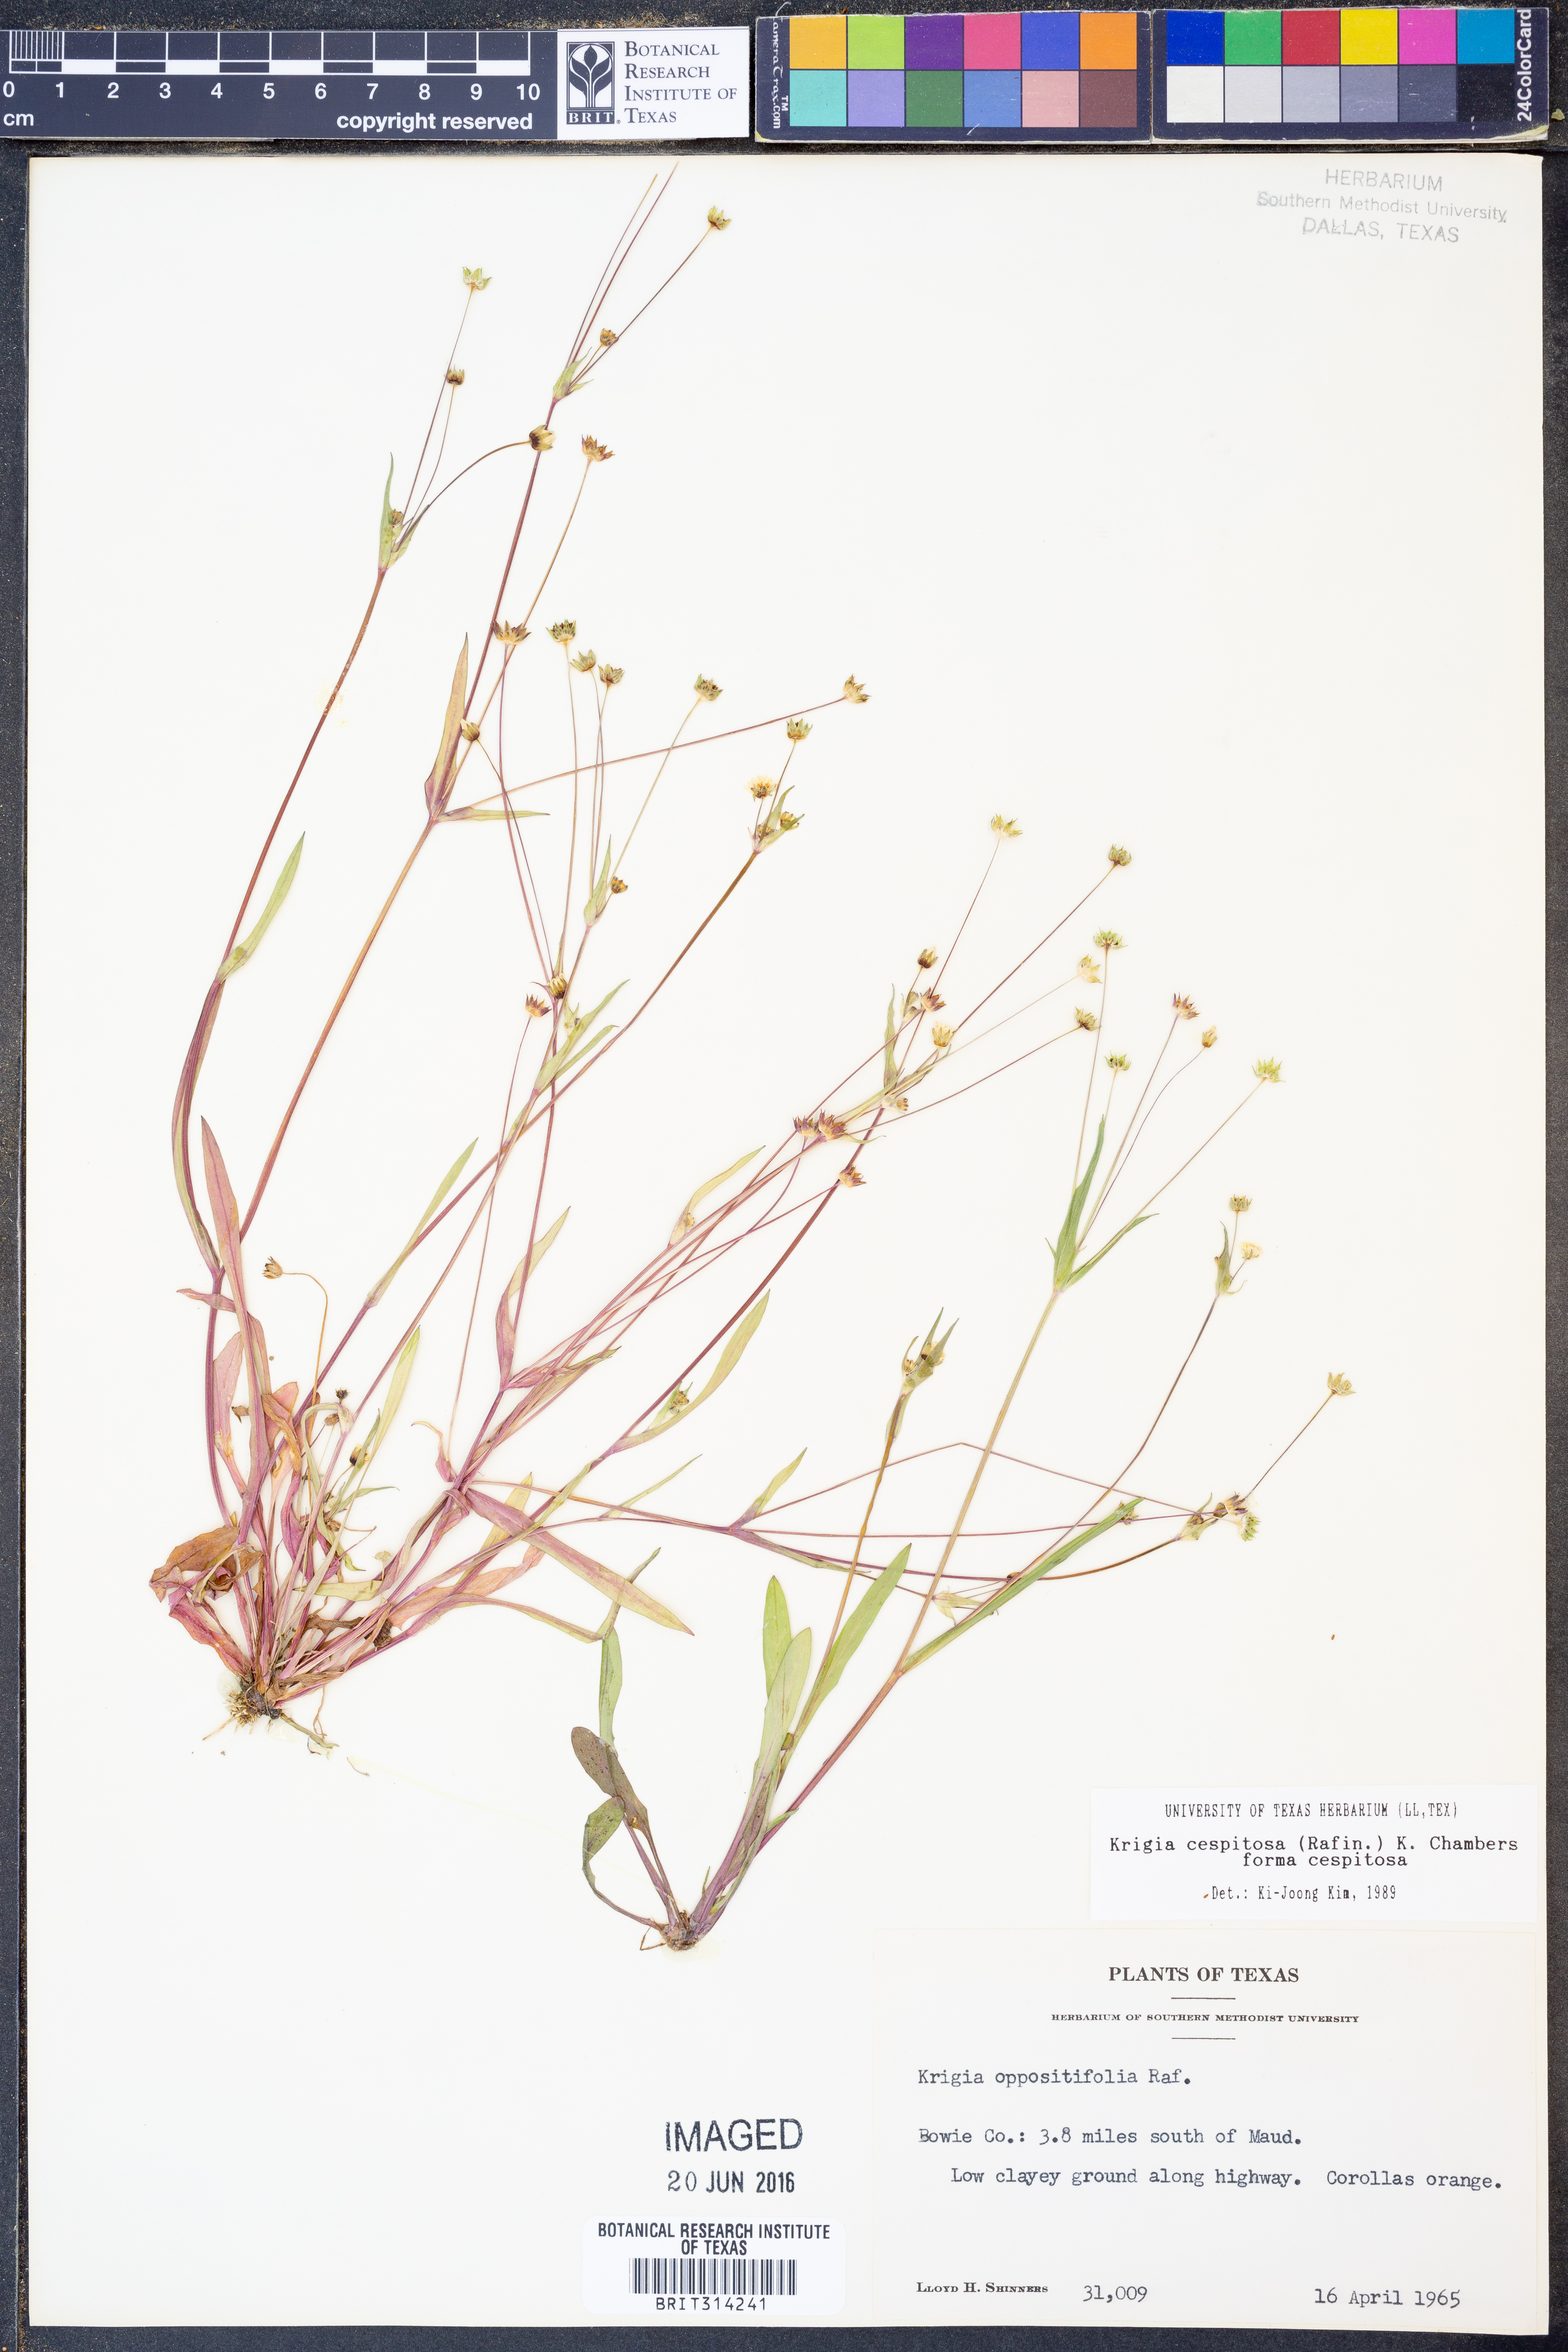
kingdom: Plantae
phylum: Tracheophyta
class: Magnoliopsida
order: Asterales
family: Asteraceae
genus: Krigia
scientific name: Krigia cespitosa
